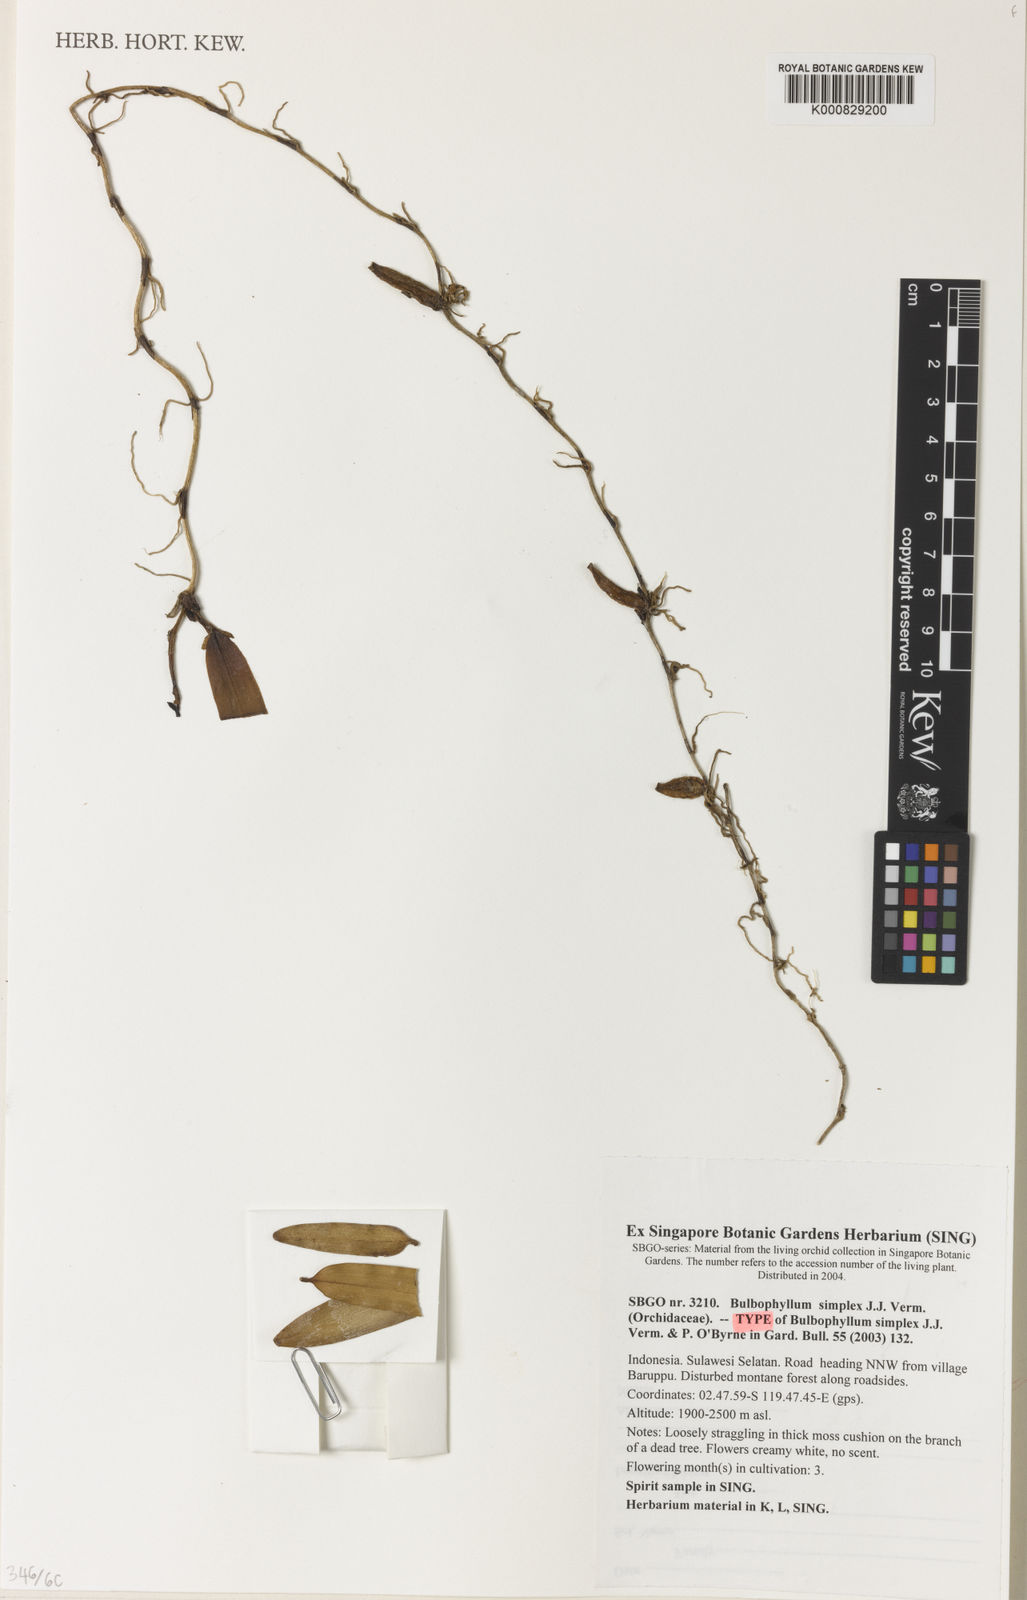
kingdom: Plantae
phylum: Tracheophyta
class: Liliopsida
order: Asparagales
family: Orchidaceae
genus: Bulbophyllum
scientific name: Bulbophyllum simplex
